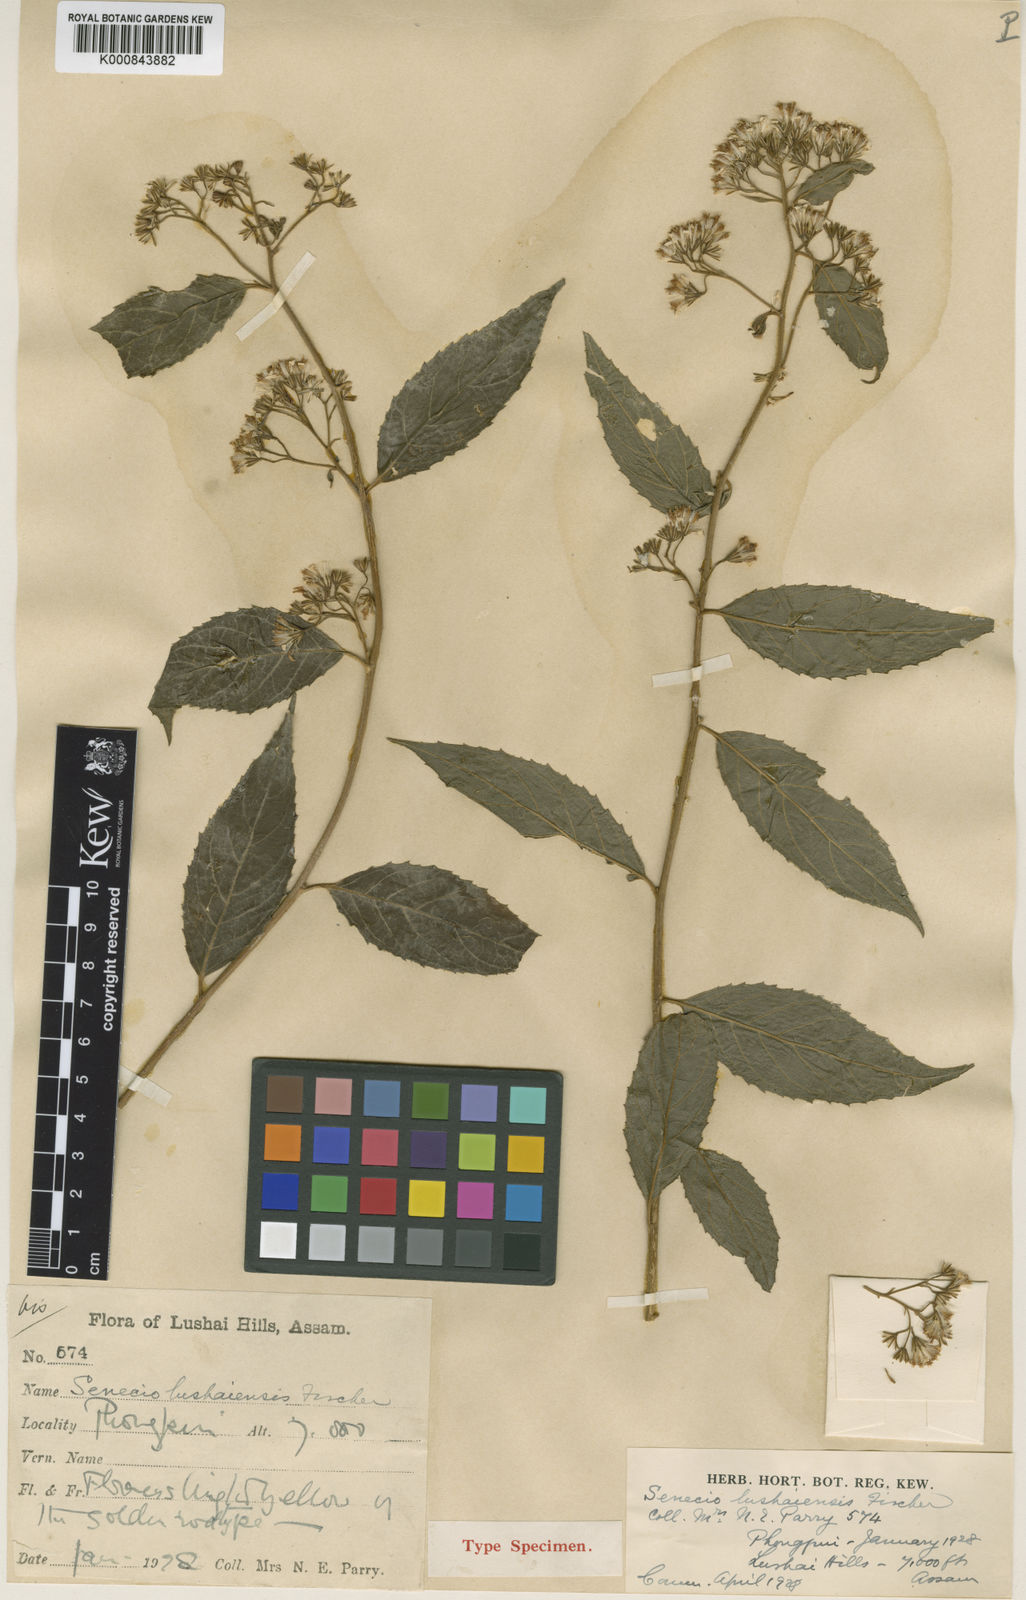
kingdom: Plantae
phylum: Tracheophyta
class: Magnoliopsida
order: Asterales
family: Asteraceae
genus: Synotis
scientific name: Synotis
